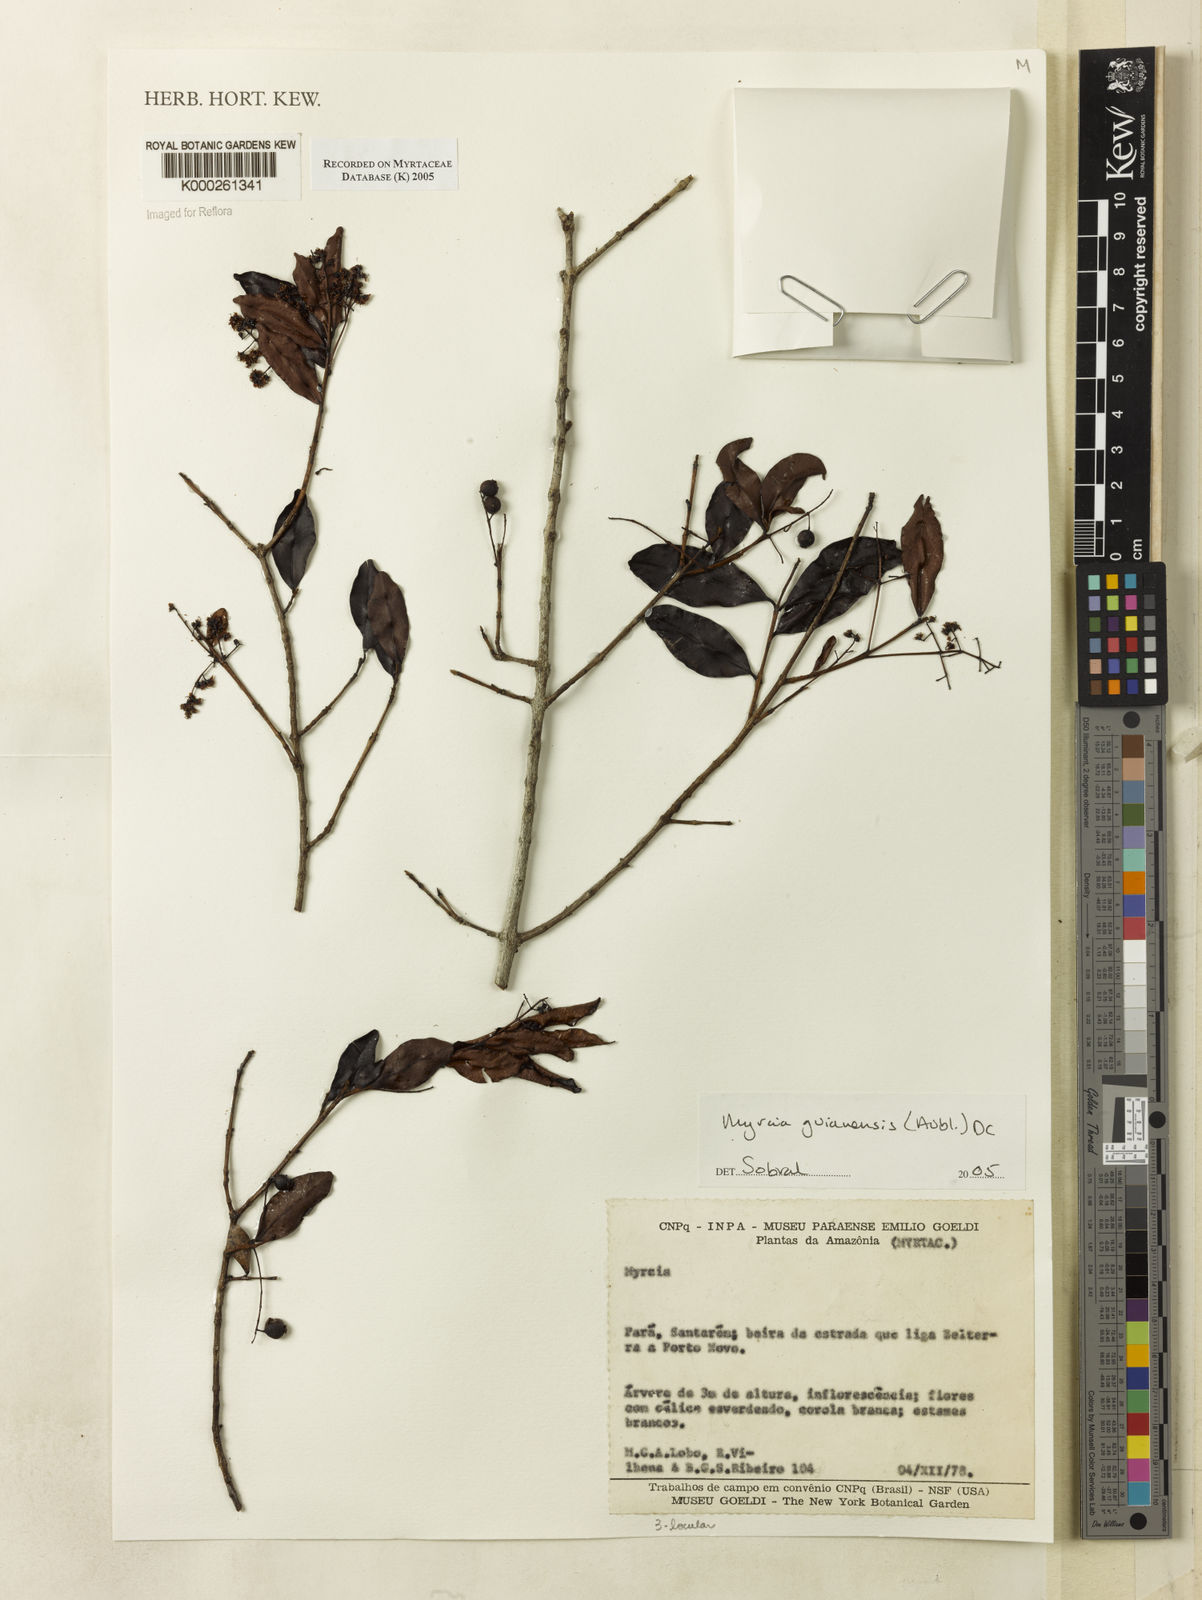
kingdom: Plantae
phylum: Tracheophyta
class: Magnoliopsida
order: Myrtales
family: Myrtaceae
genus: Myrcia
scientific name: Myrcia guianensis
